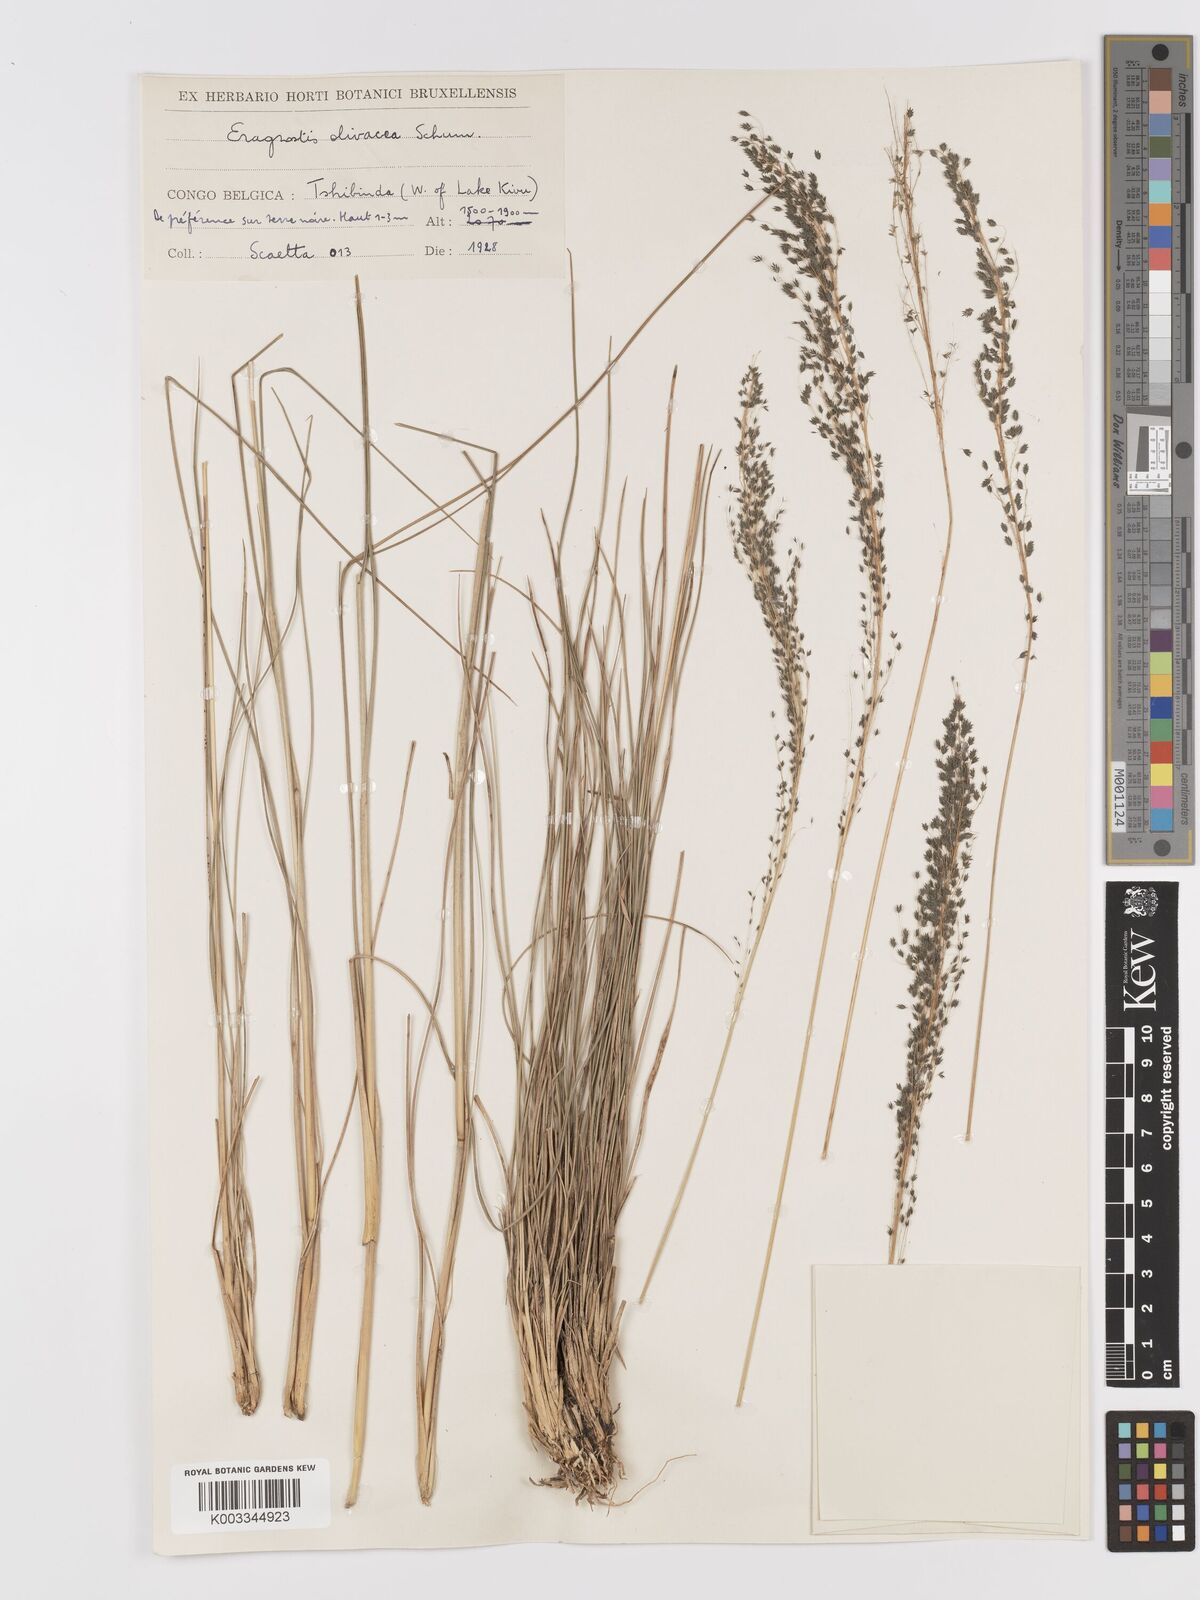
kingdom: Plantae
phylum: Tracheophyta
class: Liliopsida
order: Poales
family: Poaceae
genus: Eragrostis
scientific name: Eragrostis olivacea
